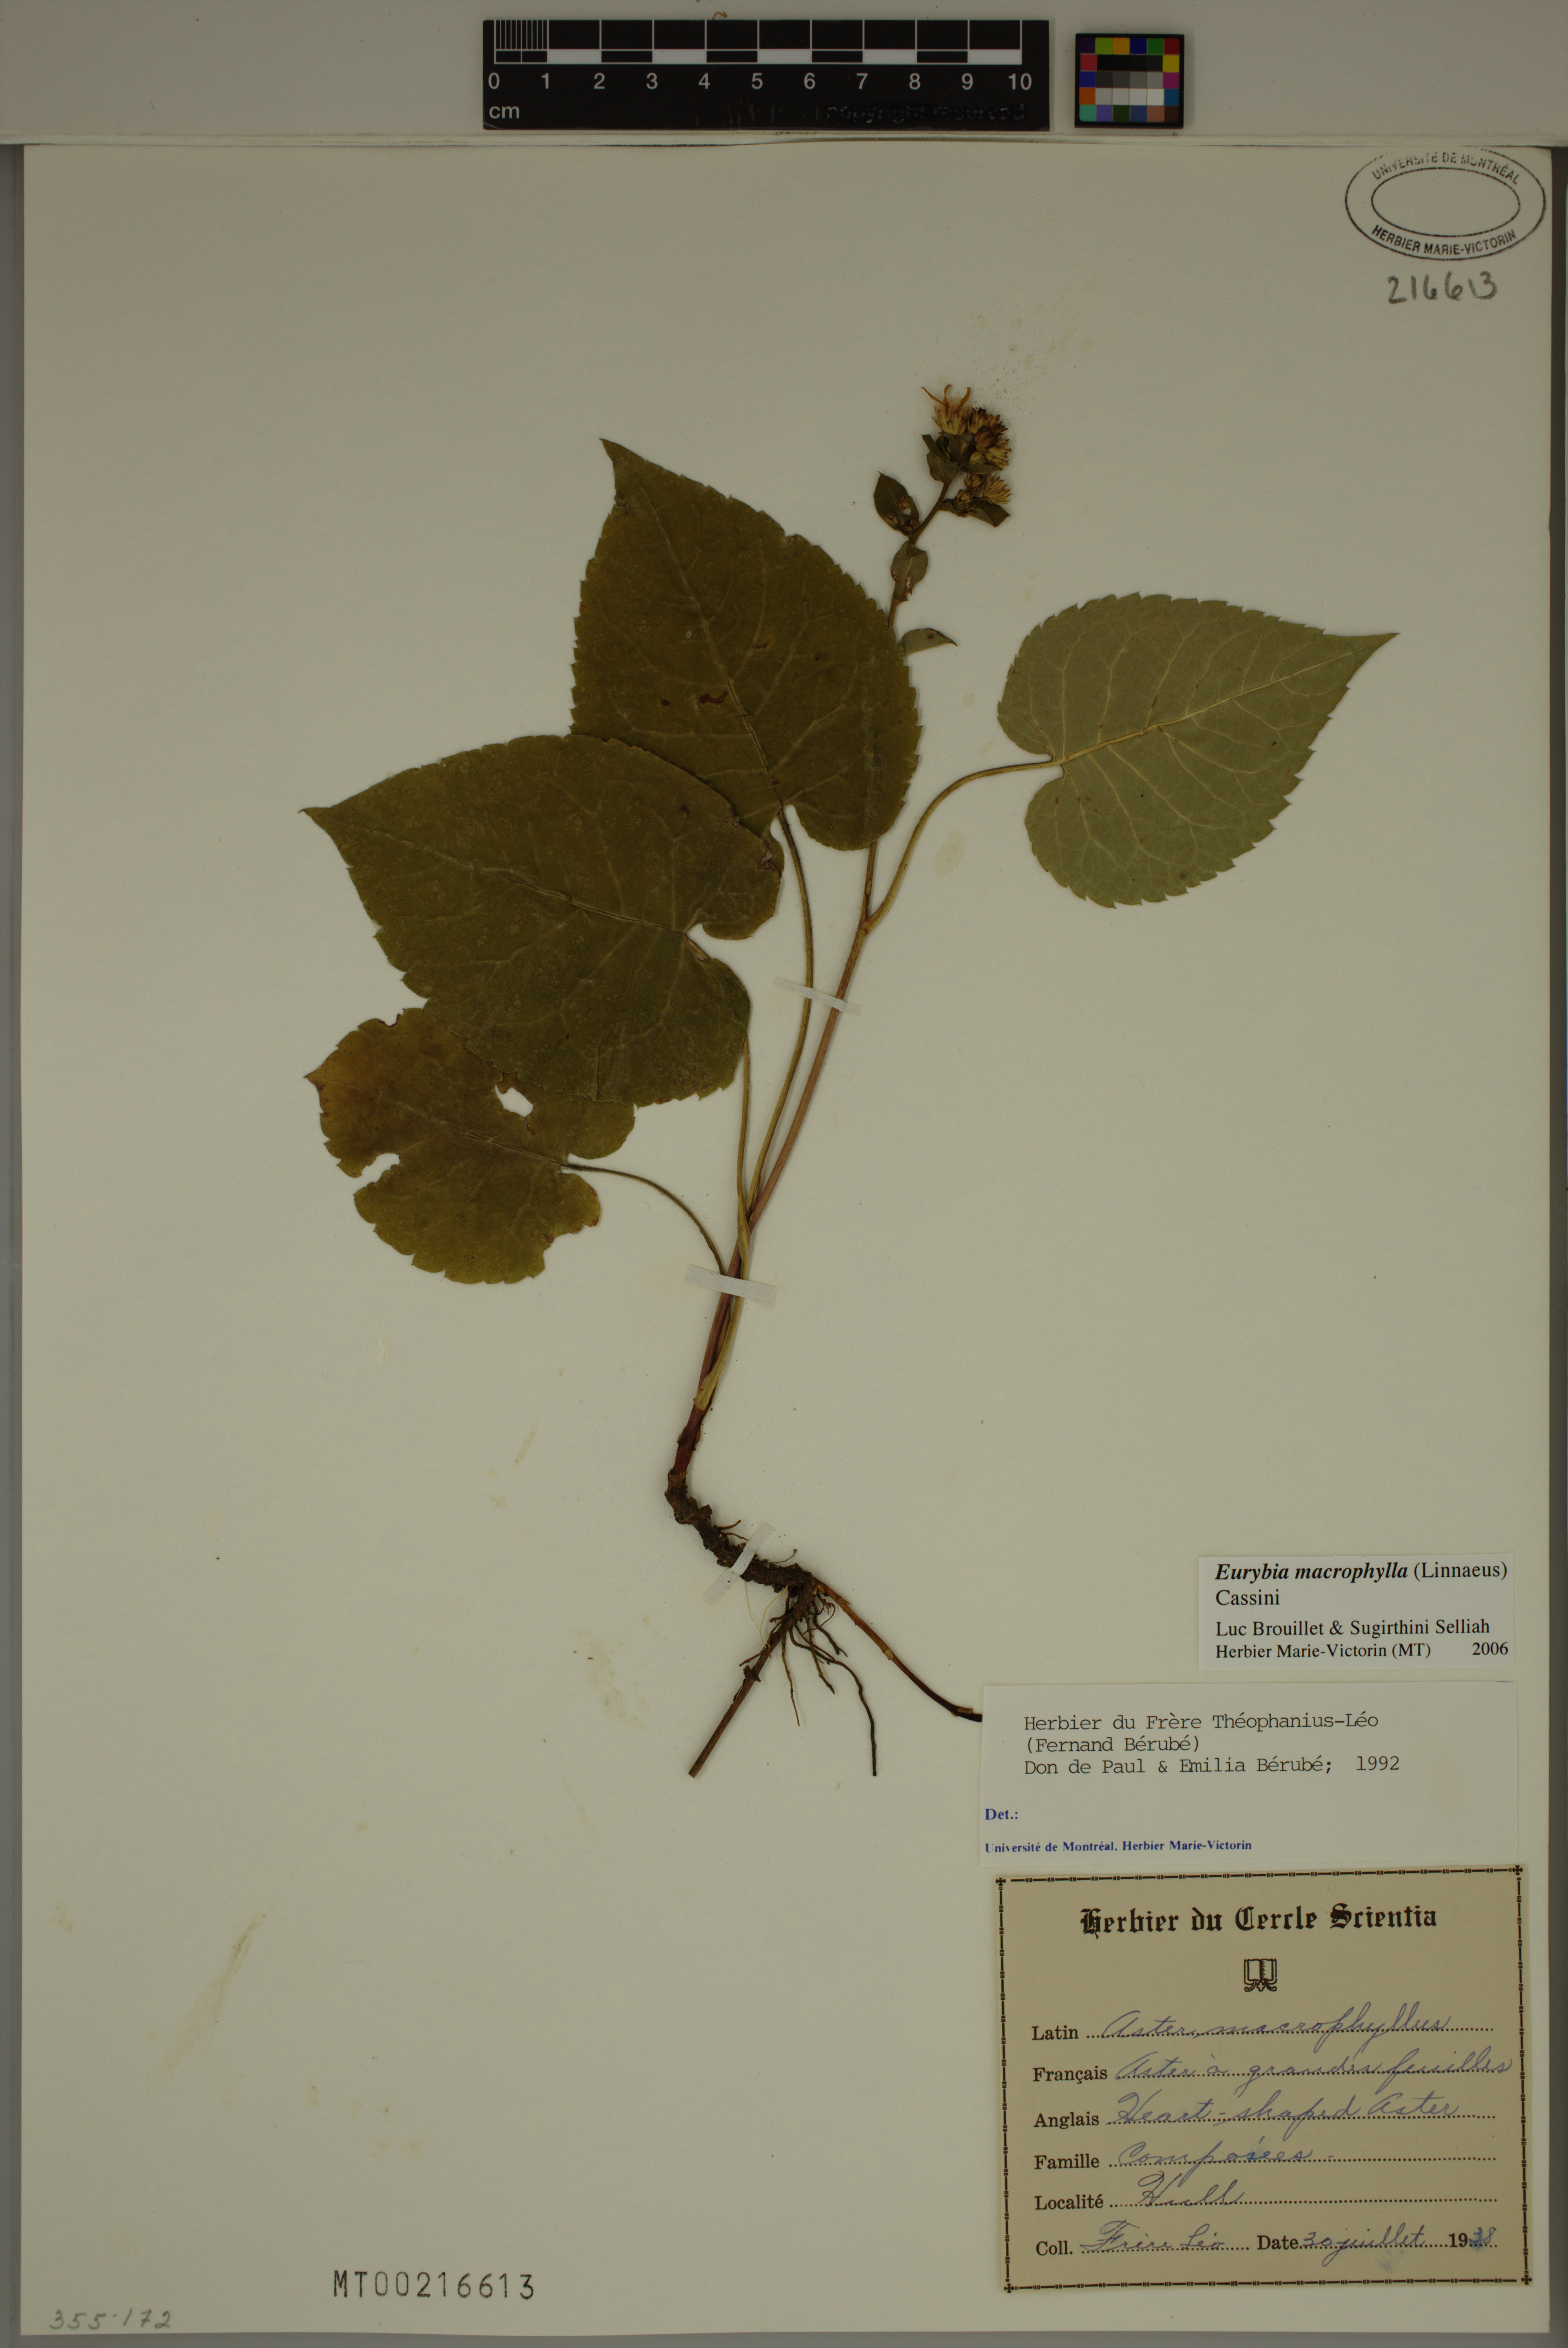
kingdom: Plantae
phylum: Tracheophyta
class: Magnoliopsida
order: Asterales
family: Asteraceae
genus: Eurybia
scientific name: Eurybia macrophylla
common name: Big-leaved aster
